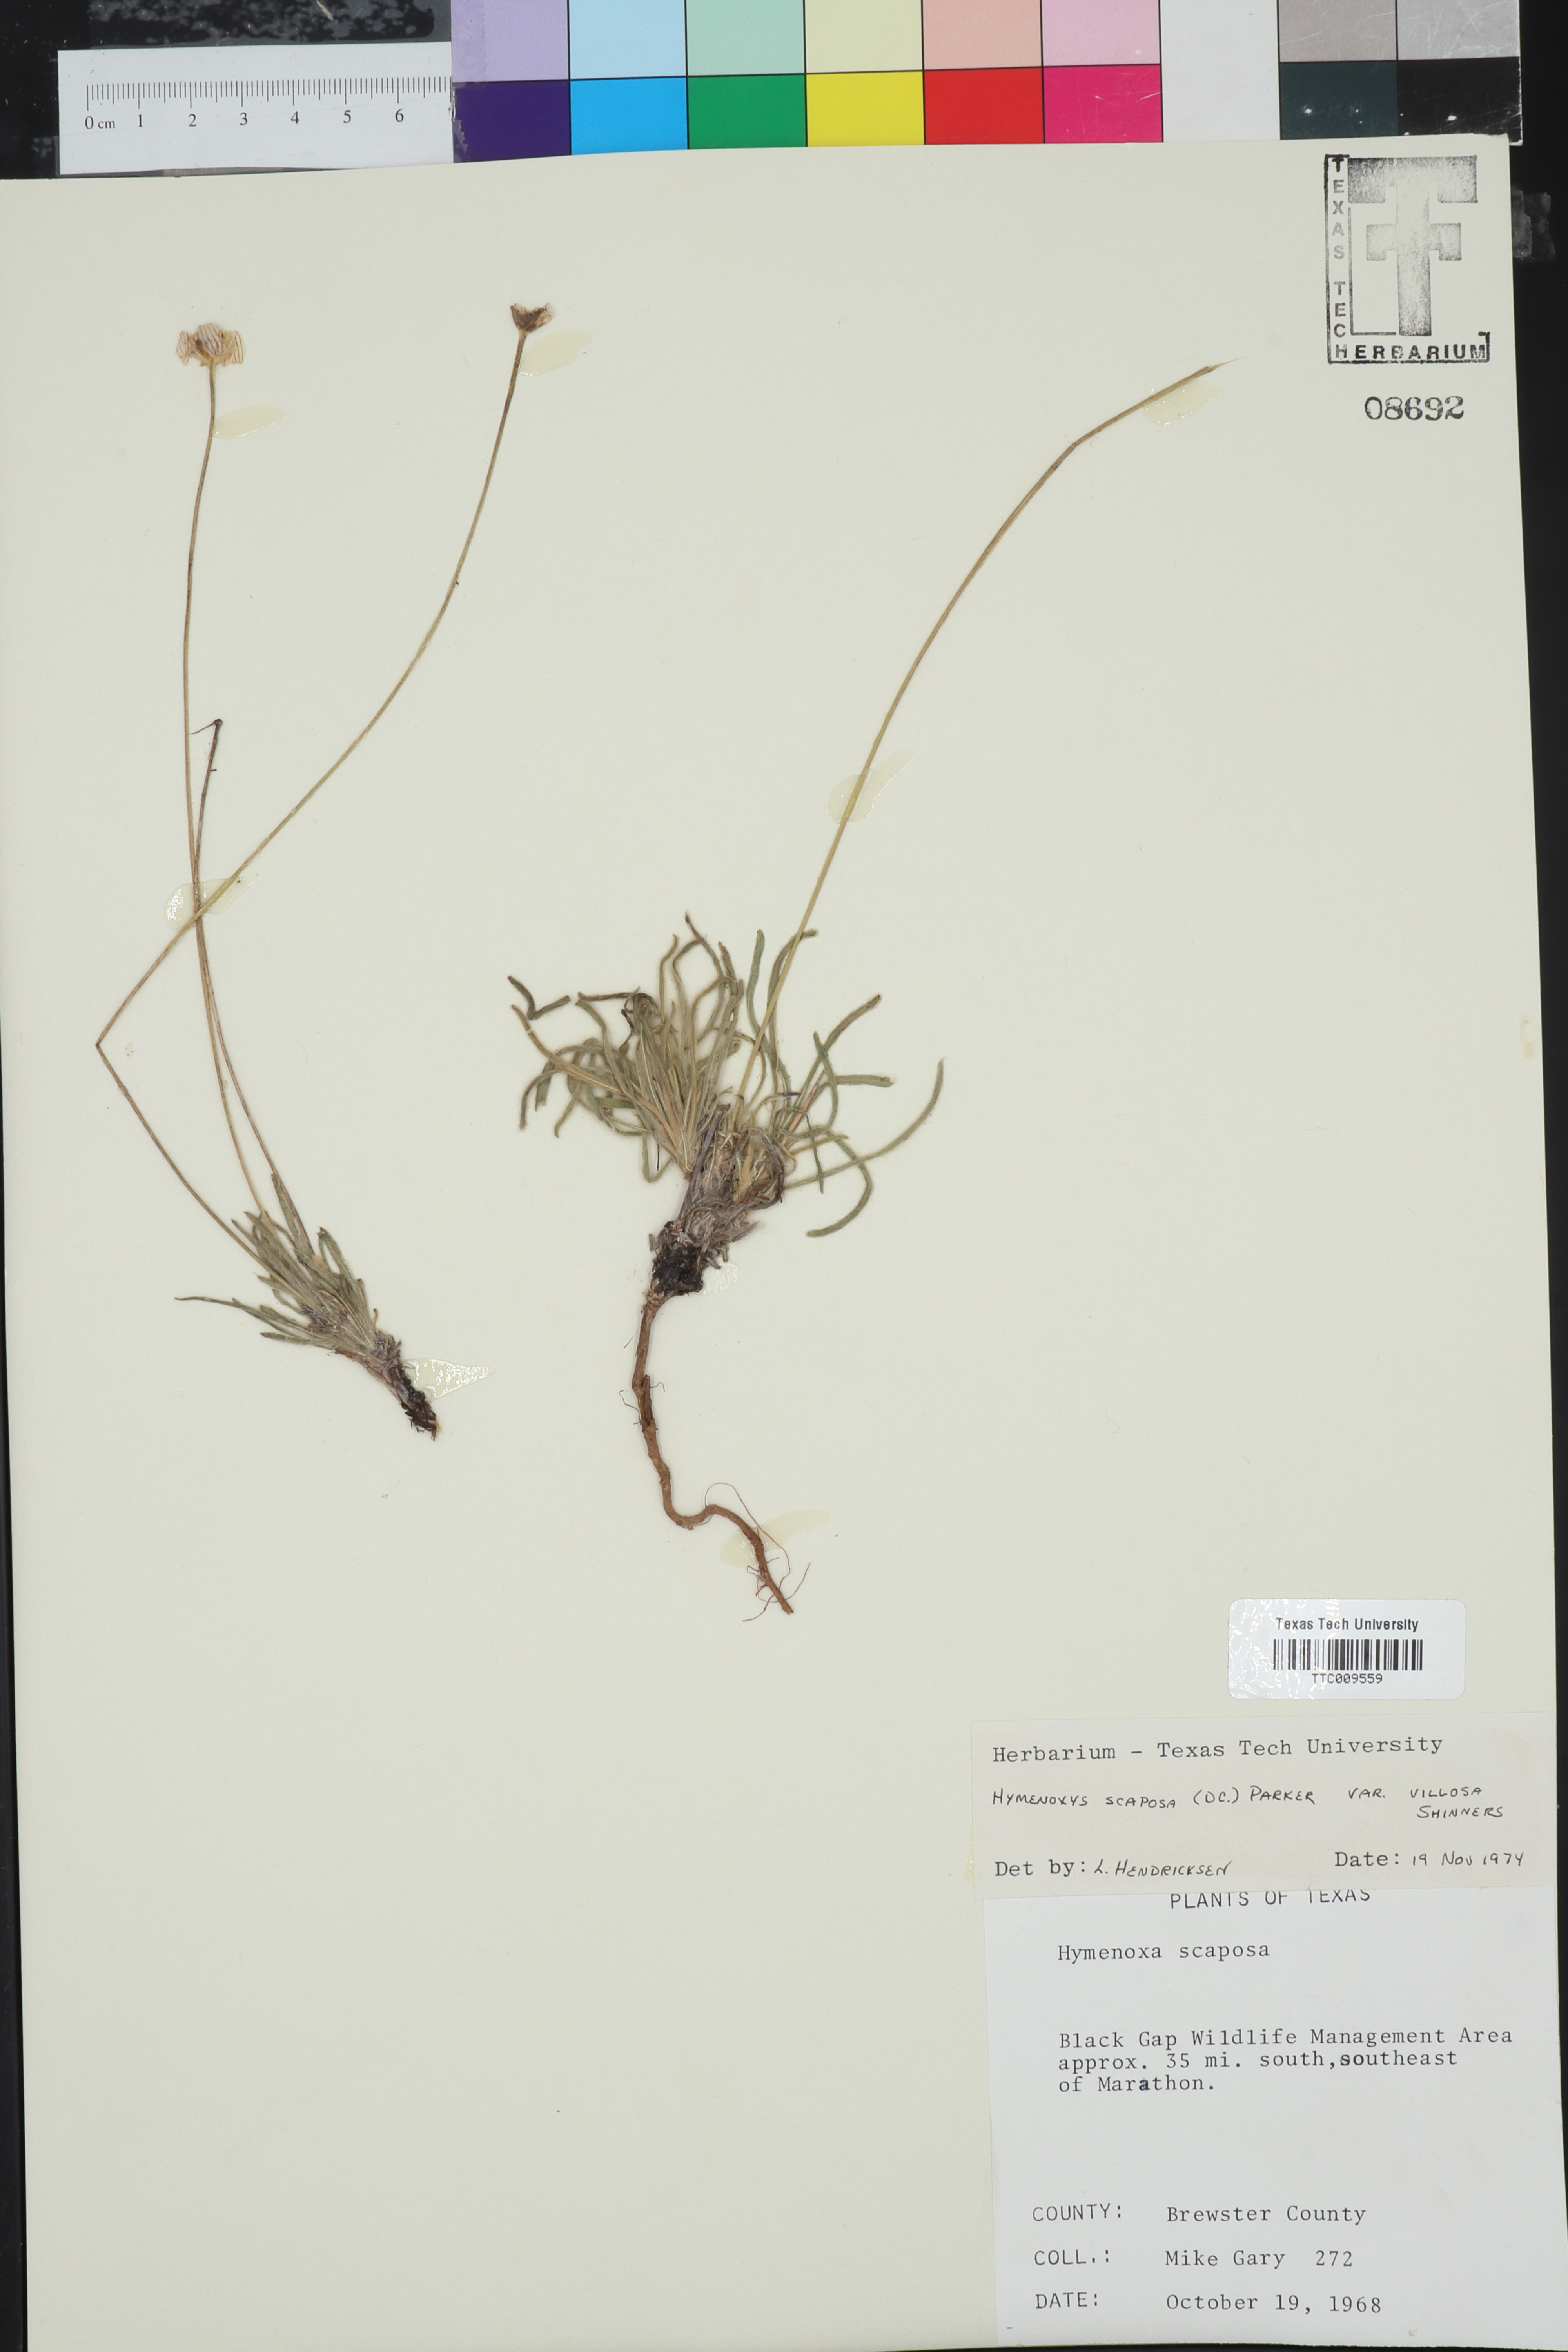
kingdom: Plantae
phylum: Tracheophyta
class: Magnoliopsida
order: Asterales
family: Asteraceae
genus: Tetraneuris
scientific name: Tetraneuris scaposa
